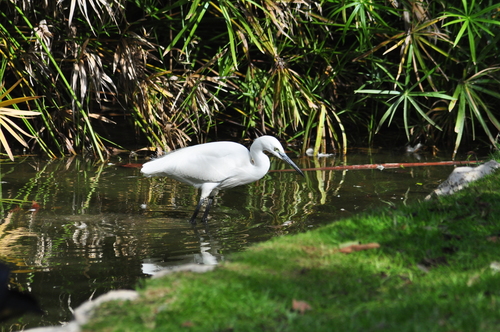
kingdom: Animalia
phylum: Chordata
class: Aves
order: Pelecaniformes
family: Ardeidae
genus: Egretta
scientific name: Egretta garzetta
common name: Little egret
